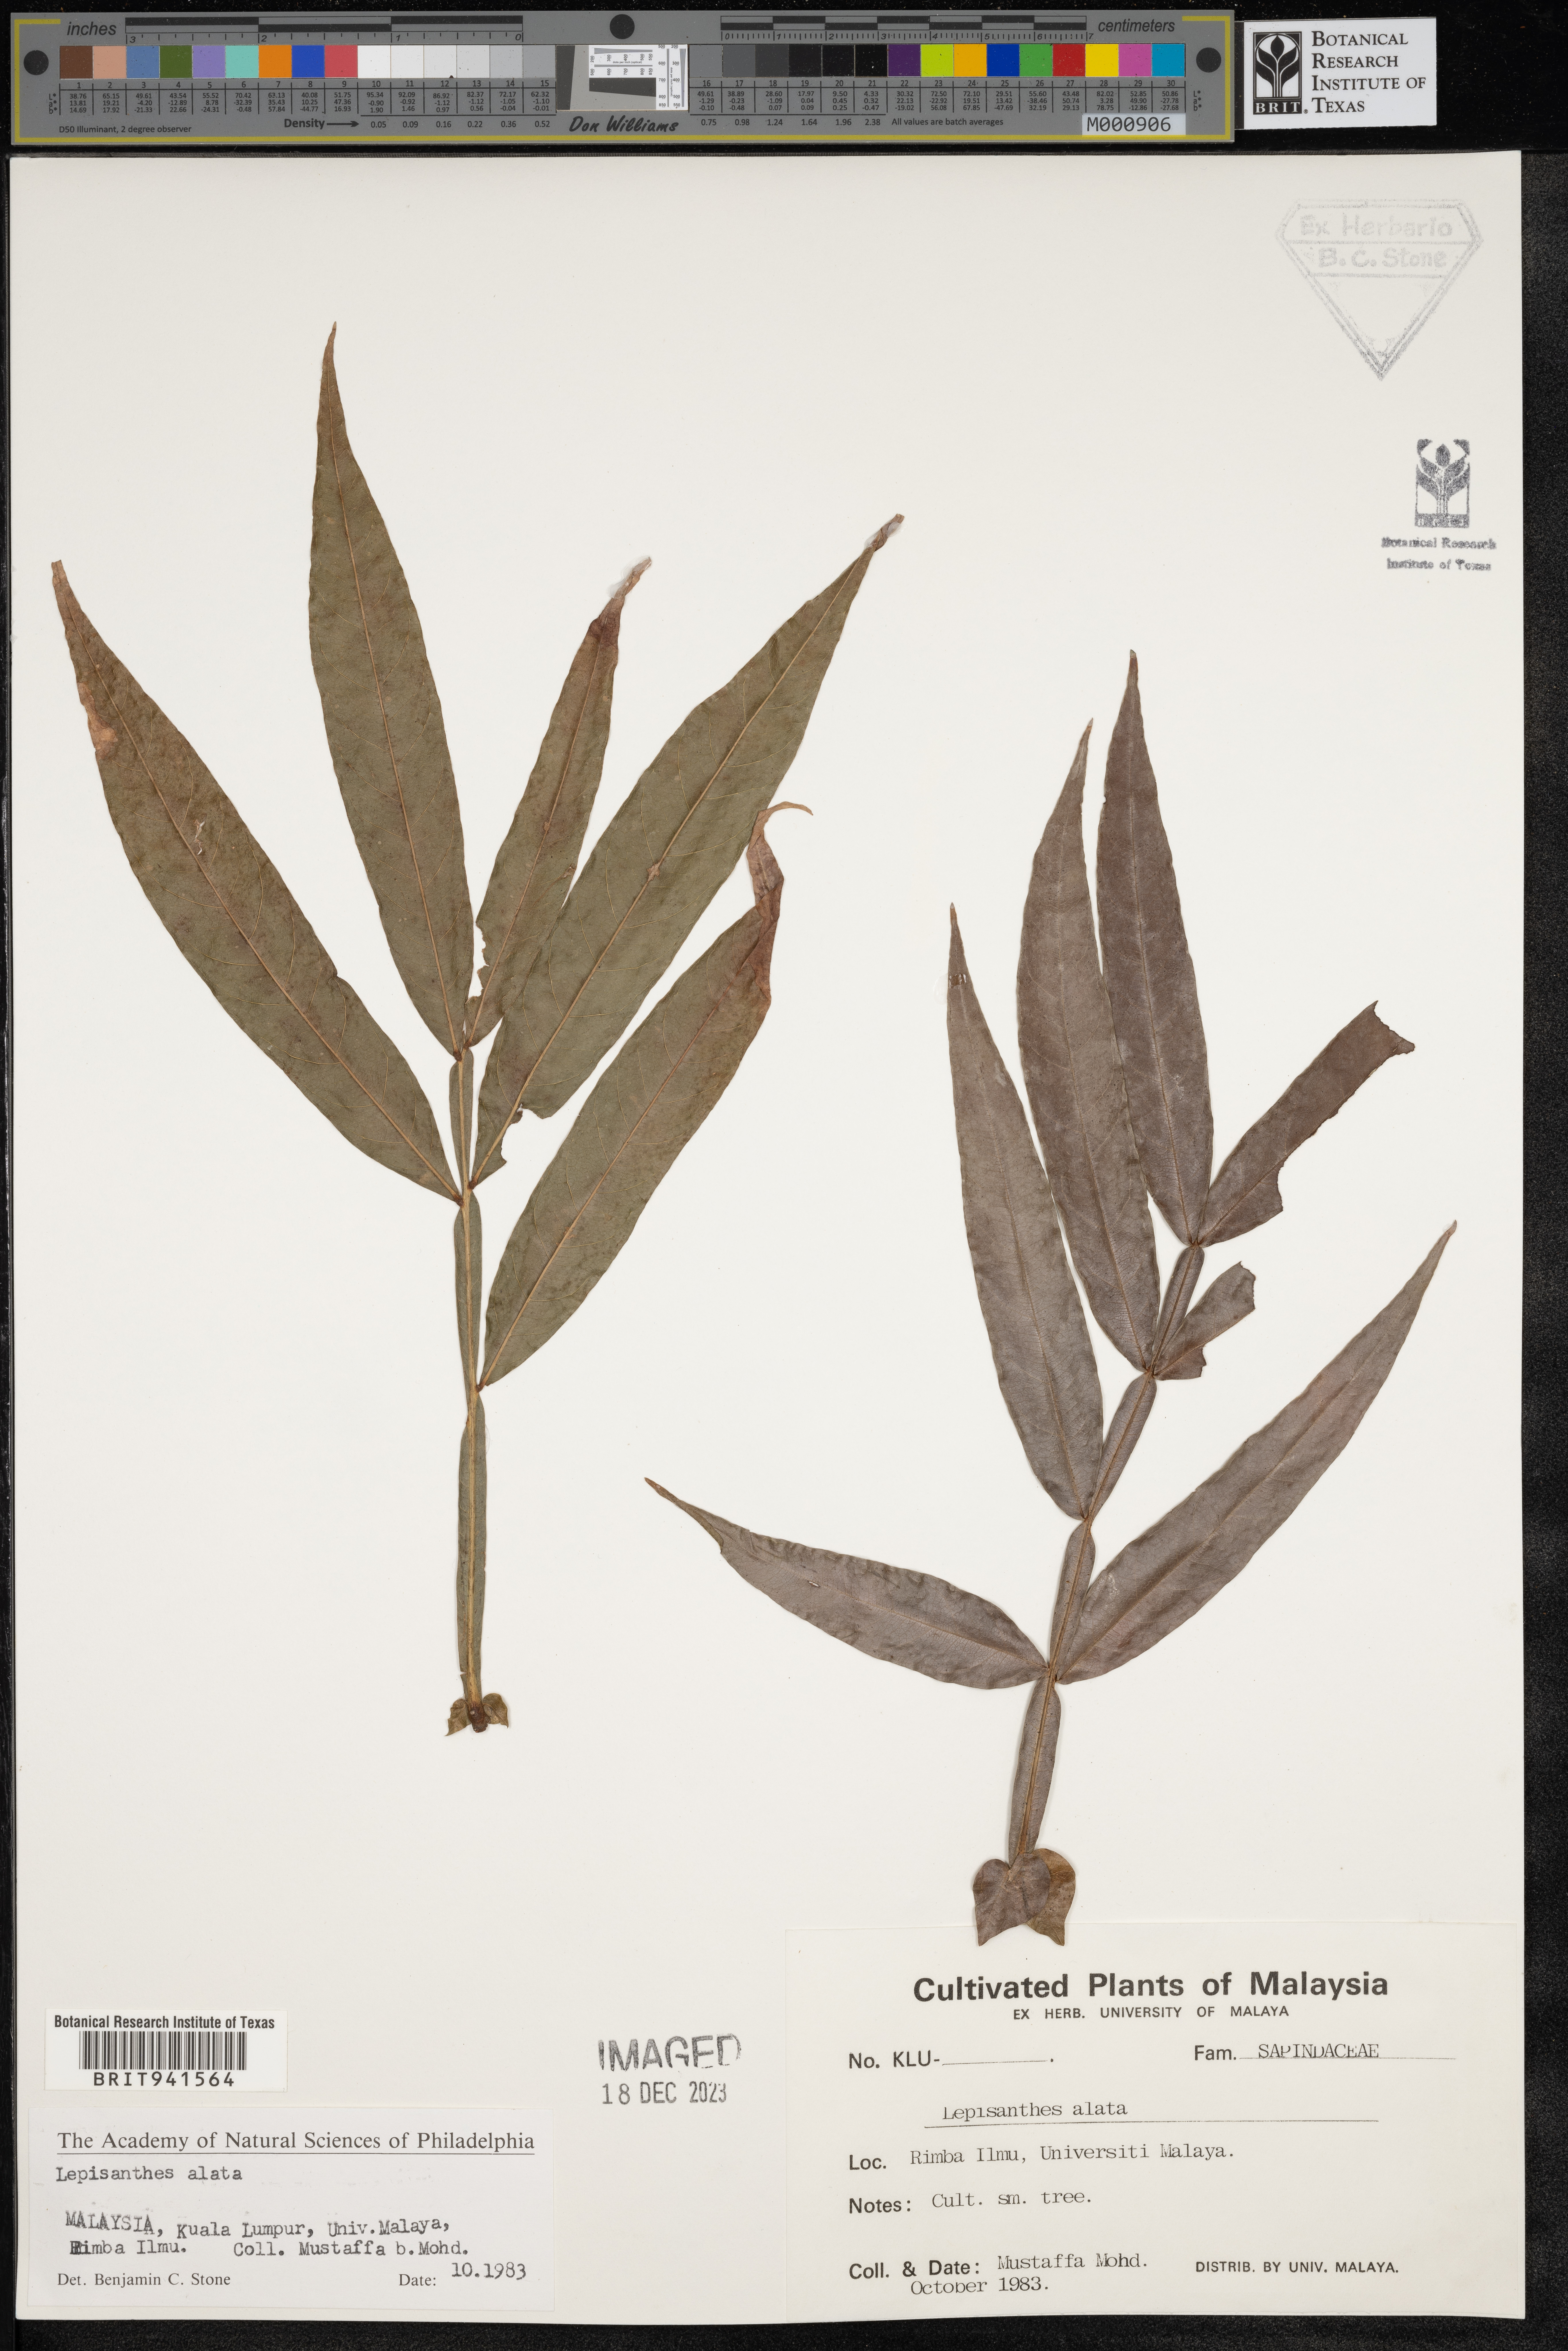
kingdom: Plantae
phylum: Tracheophyta
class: Magnoliopsida
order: Sapindales
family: Sapindaceae
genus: Lepisanthes
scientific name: Lepisanthes
